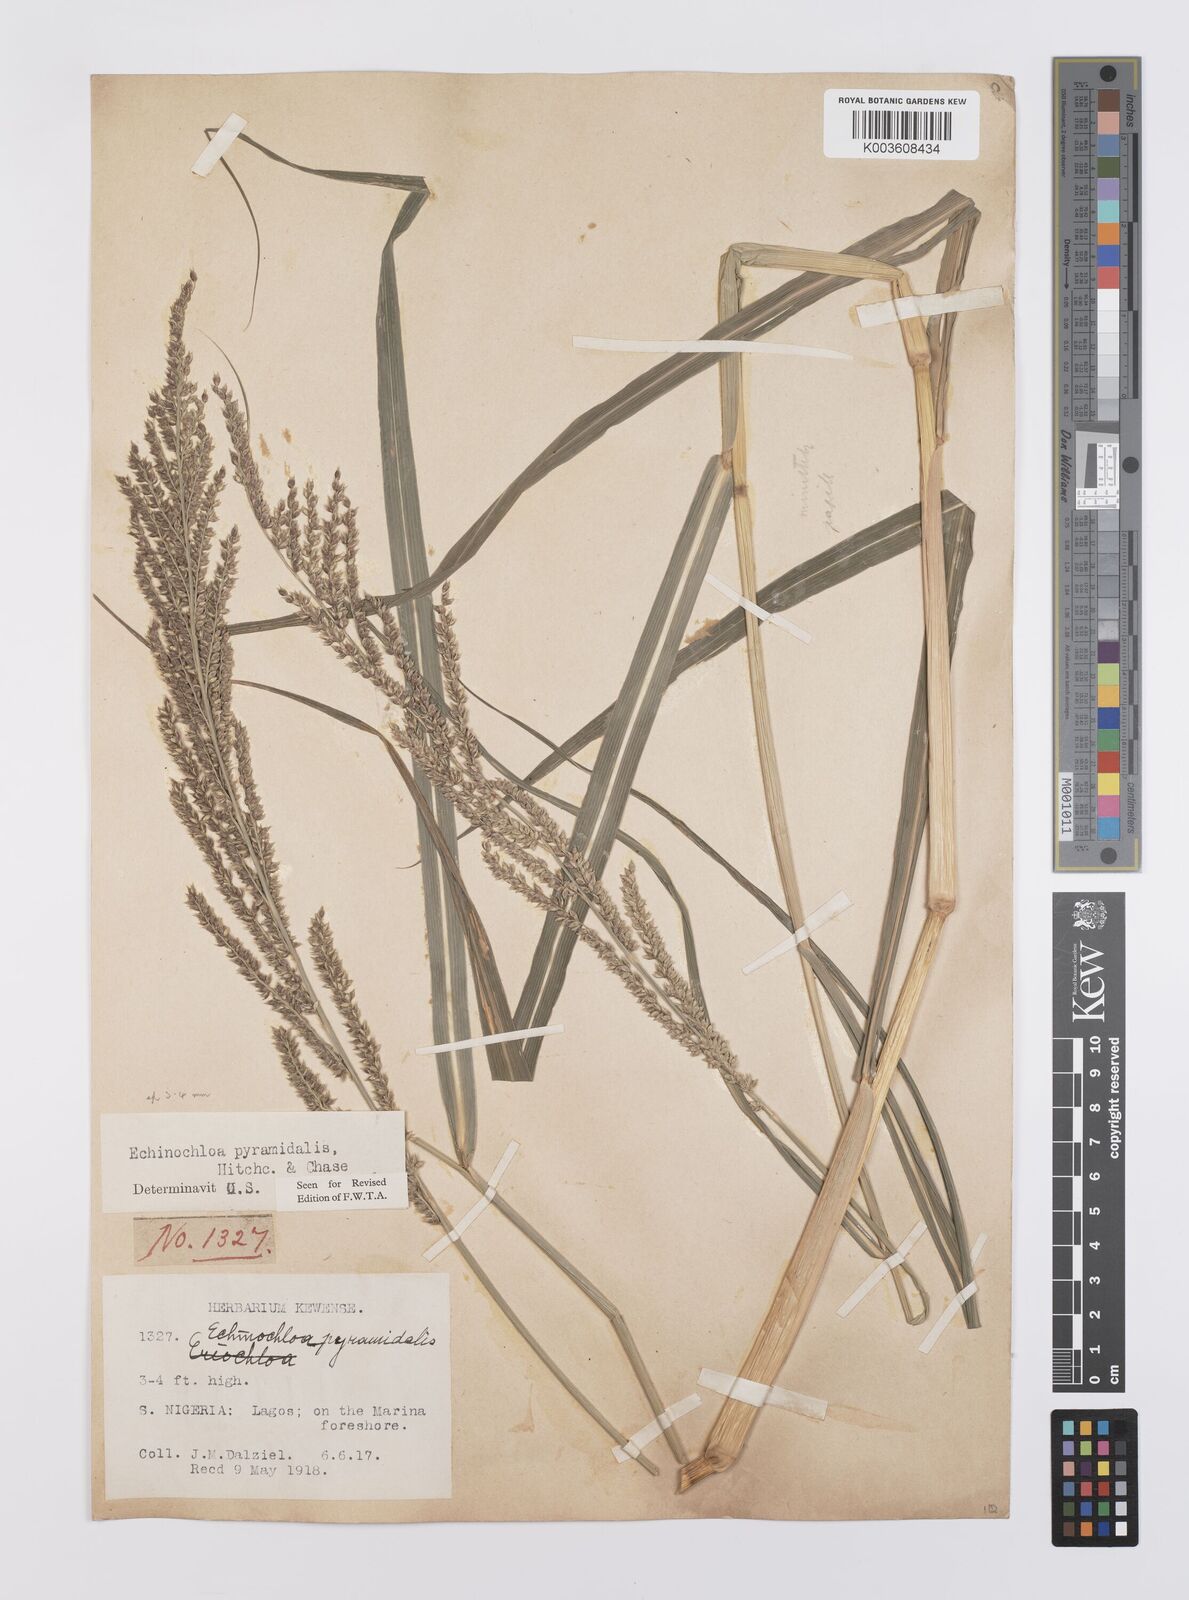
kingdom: Plantae
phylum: Tracheophyta
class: Liliopsida
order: Poales
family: Poaceae
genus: Echinochloa
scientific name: Echinochloa pyramidalis
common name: Antelope grass
